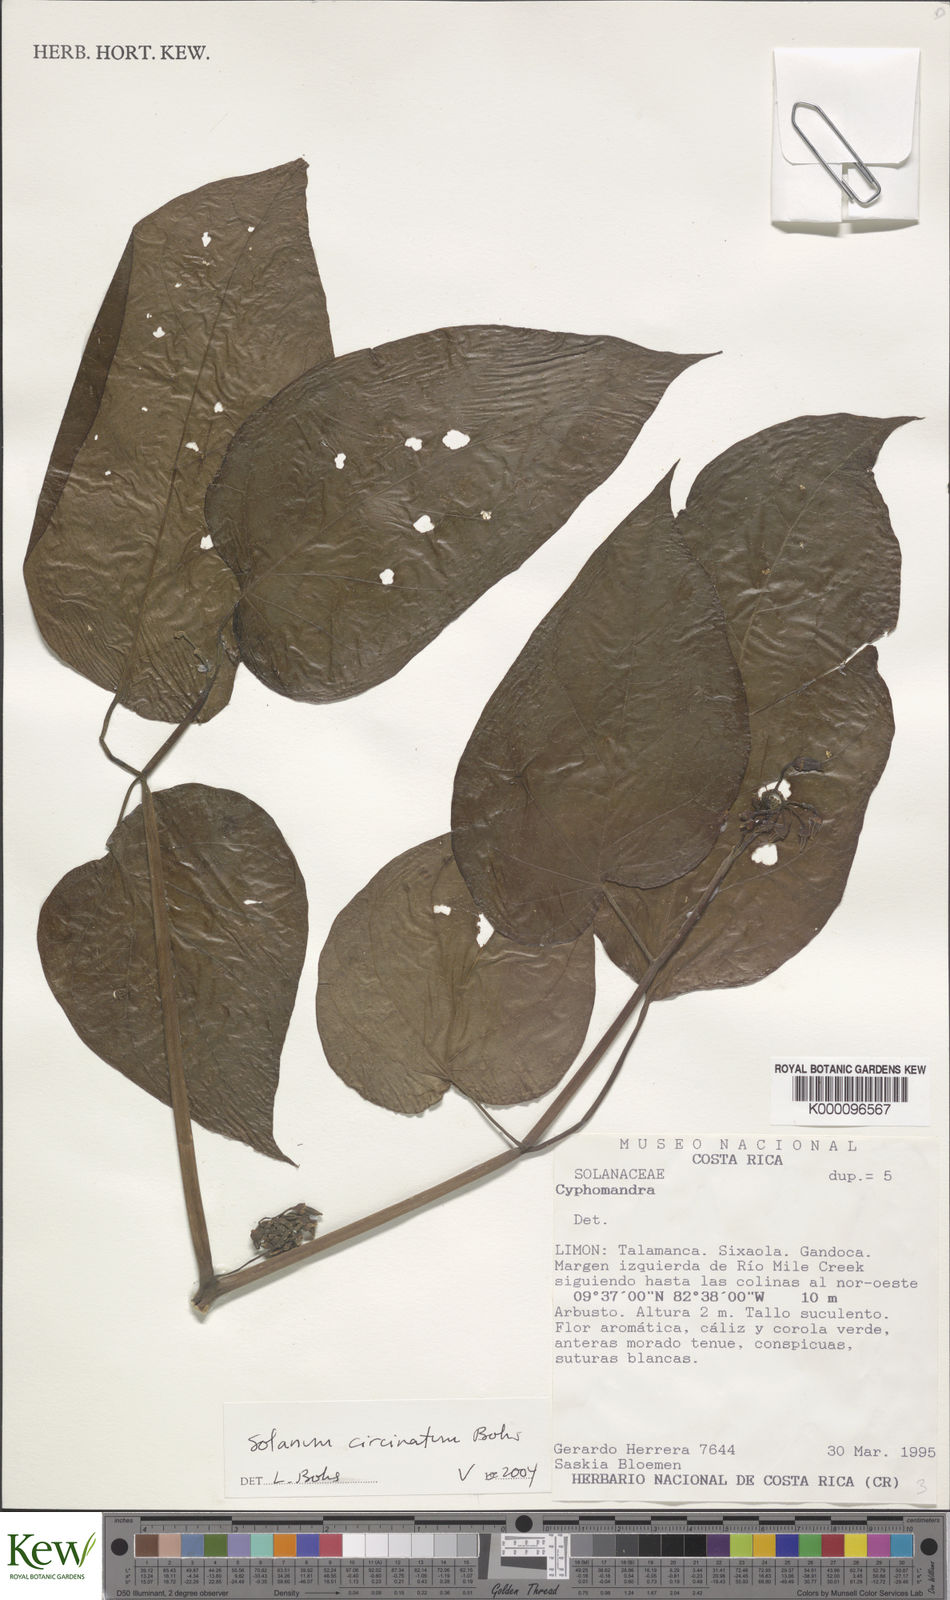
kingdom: Plantae
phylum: Tracheophyta
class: Magnoliopsida
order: Solanales
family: Solanaceae
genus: Solanum
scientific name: Solanum splendens
